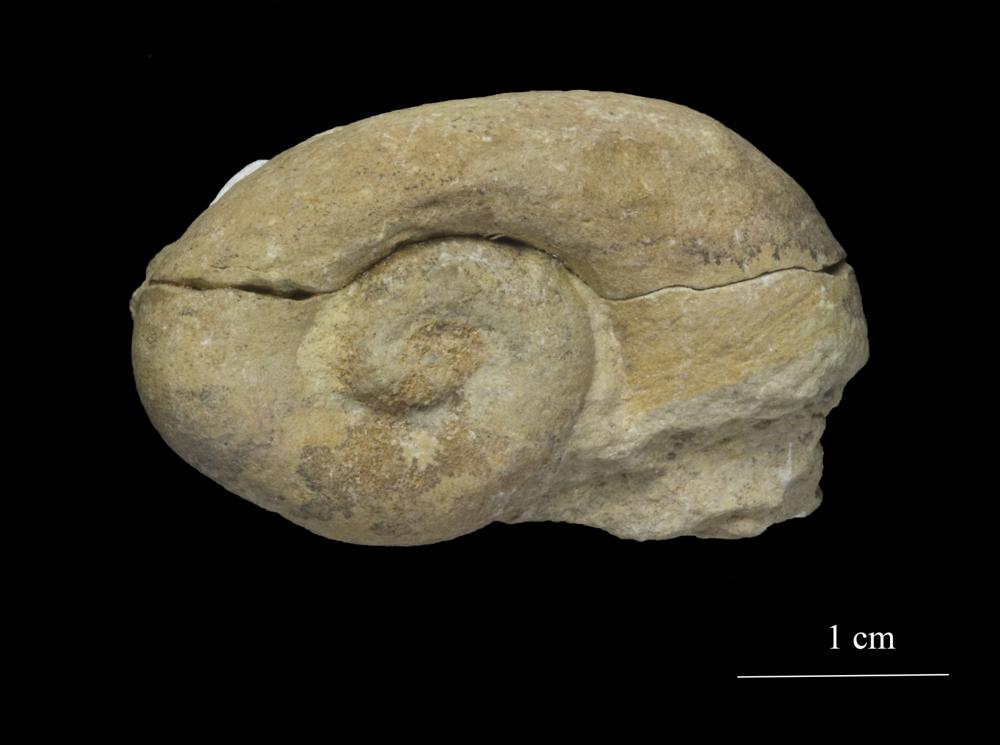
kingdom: Animalia
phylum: Mollusca
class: Gastropoda
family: Holopeidae
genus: Pachystrophia
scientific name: Pachystrophia Euomphalus devexus
